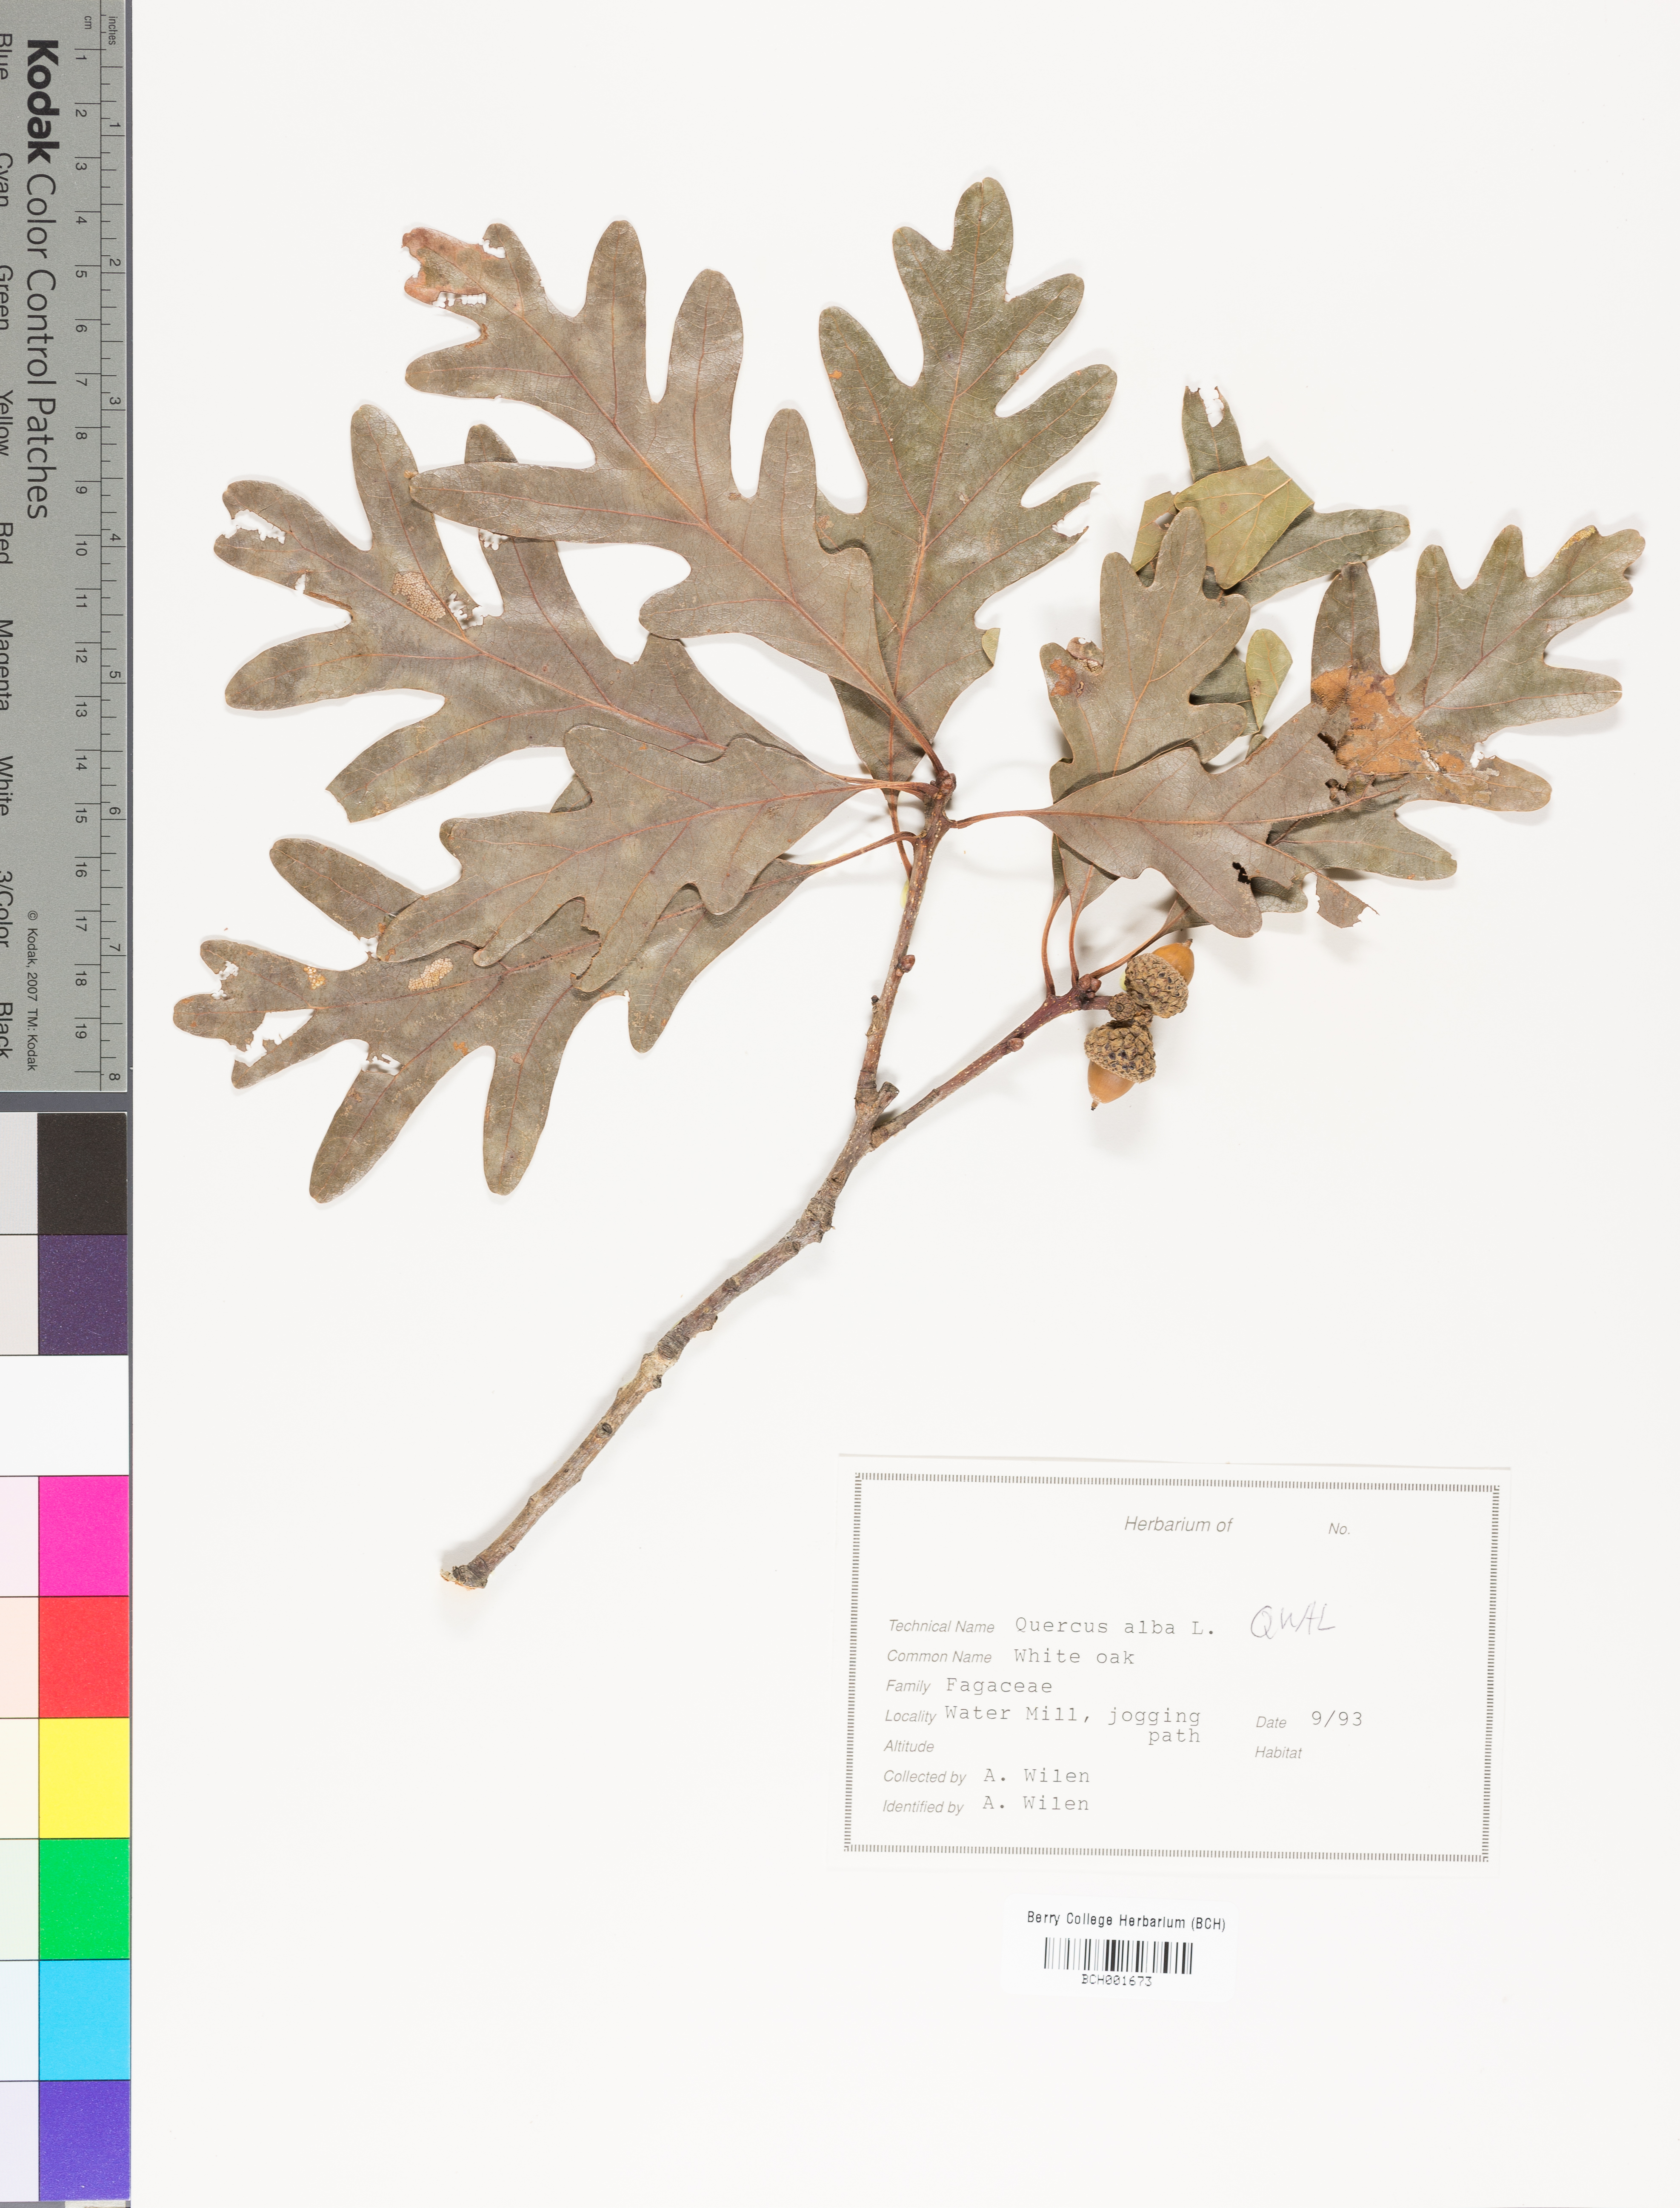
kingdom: Plantae
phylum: Tracheophyta
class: Magnoliopsida
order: Fagales
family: Fagaceae
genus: Quercus
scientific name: Quercus alba
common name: White oak
